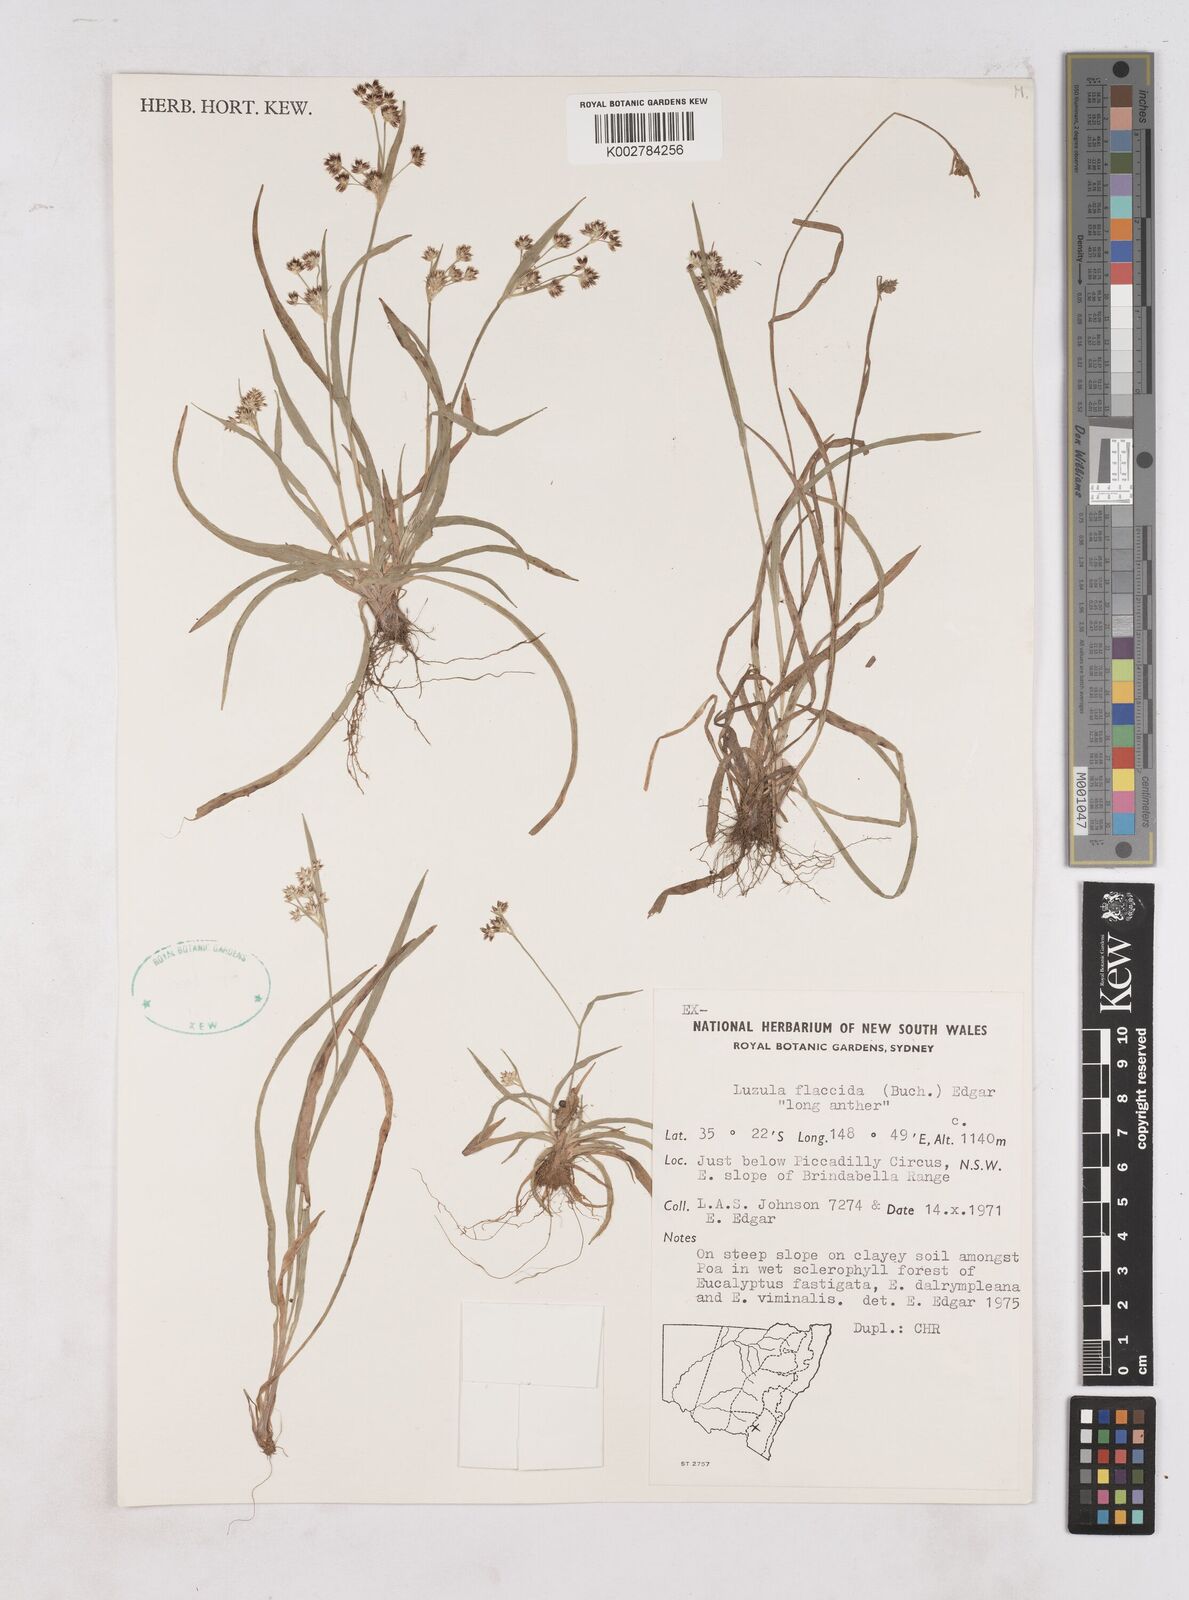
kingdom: Plantae
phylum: Tracheophyta
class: Liliopsida
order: Poales
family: Juncaceae
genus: Luzula
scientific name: Luzula flaccida
